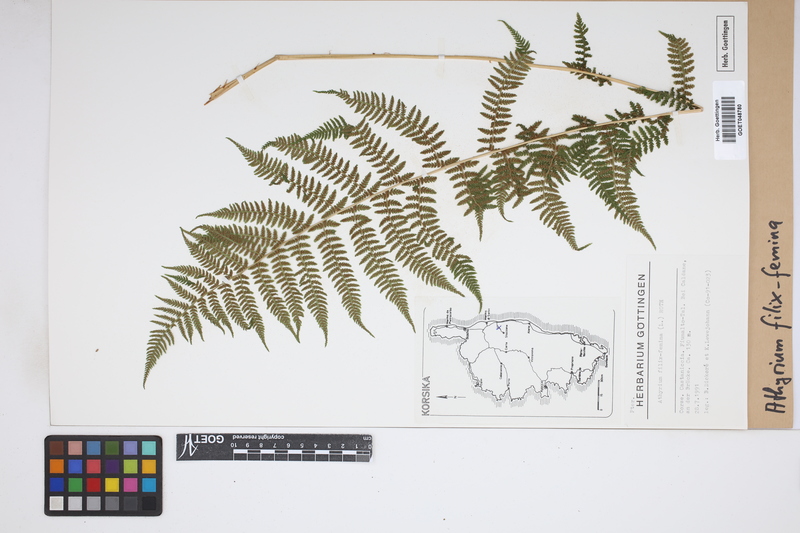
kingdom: Plantae
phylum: Tracheophyta
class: Polypodiopsida
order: Polypodiales
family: Athyriaceae
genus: Athyrium
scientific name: Athyrium filix-femina
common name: Lady fern
